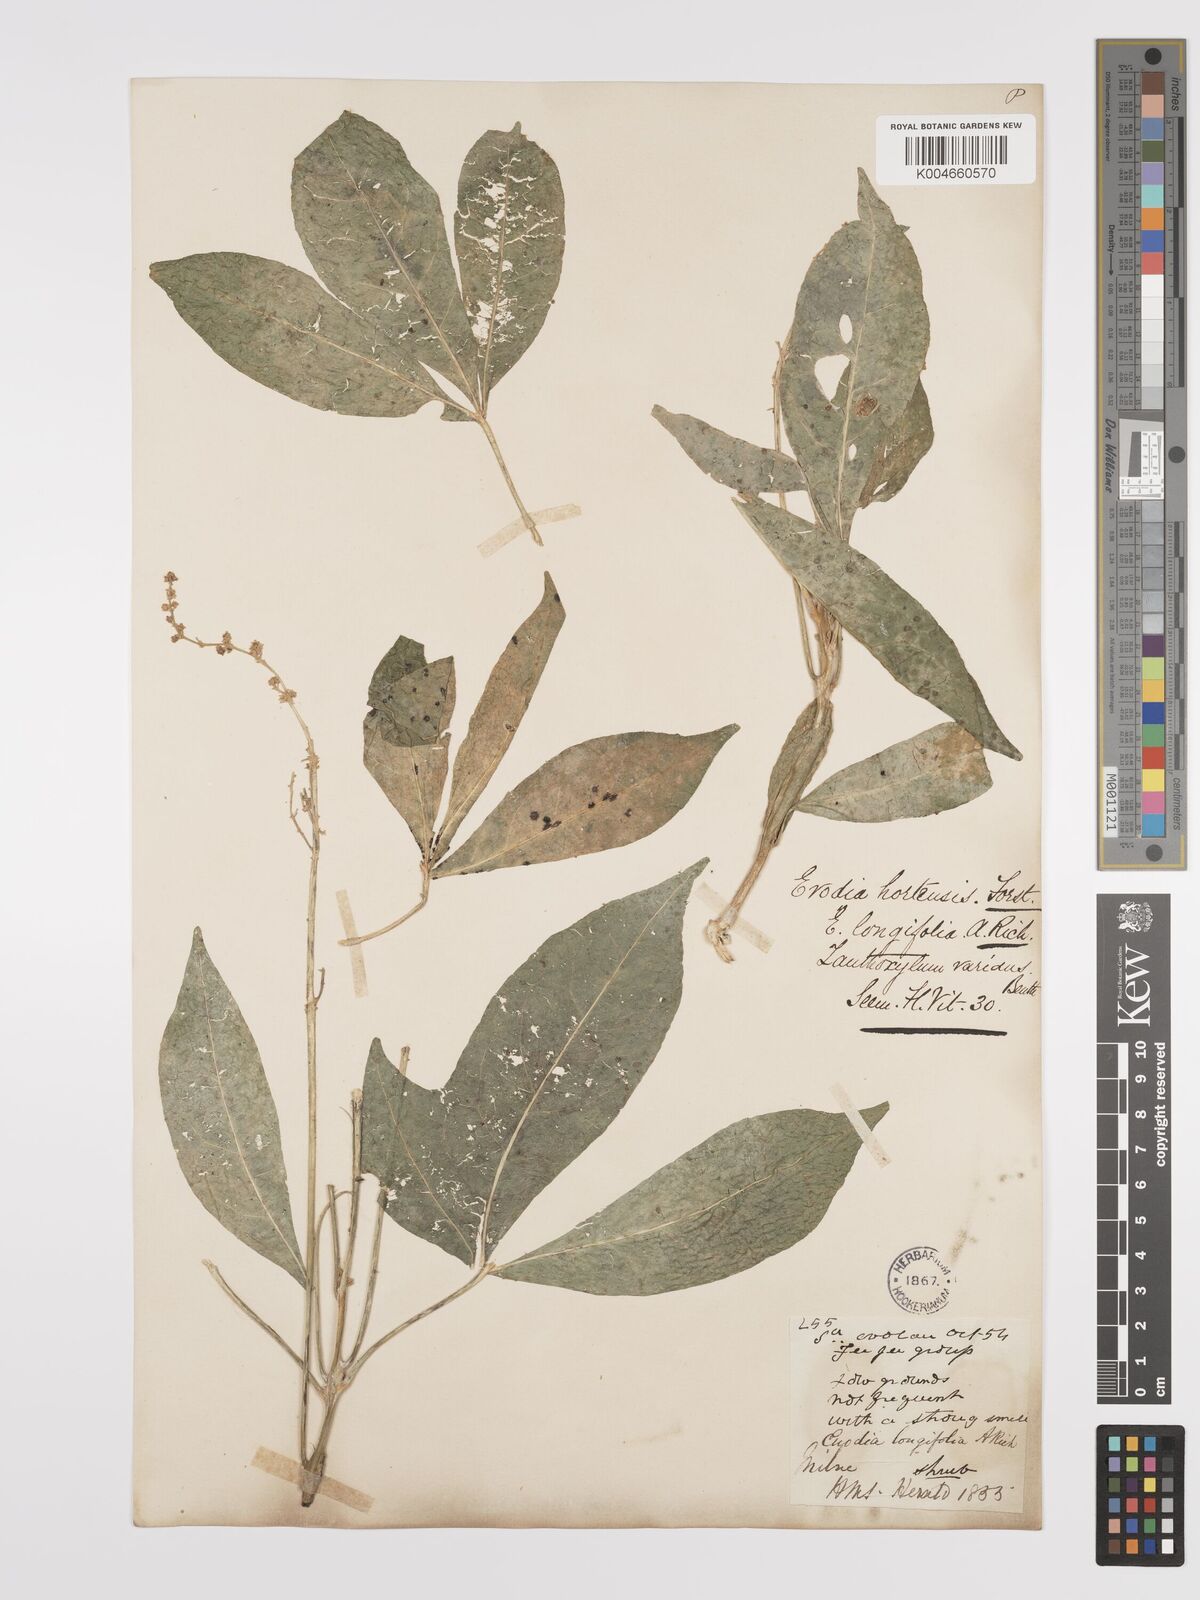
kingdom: Plantae
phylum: Tracheophyta
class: Magnoliopsida
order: Sapindales
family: Rutaceae
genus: Euodia
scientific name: Euodia hortensis
